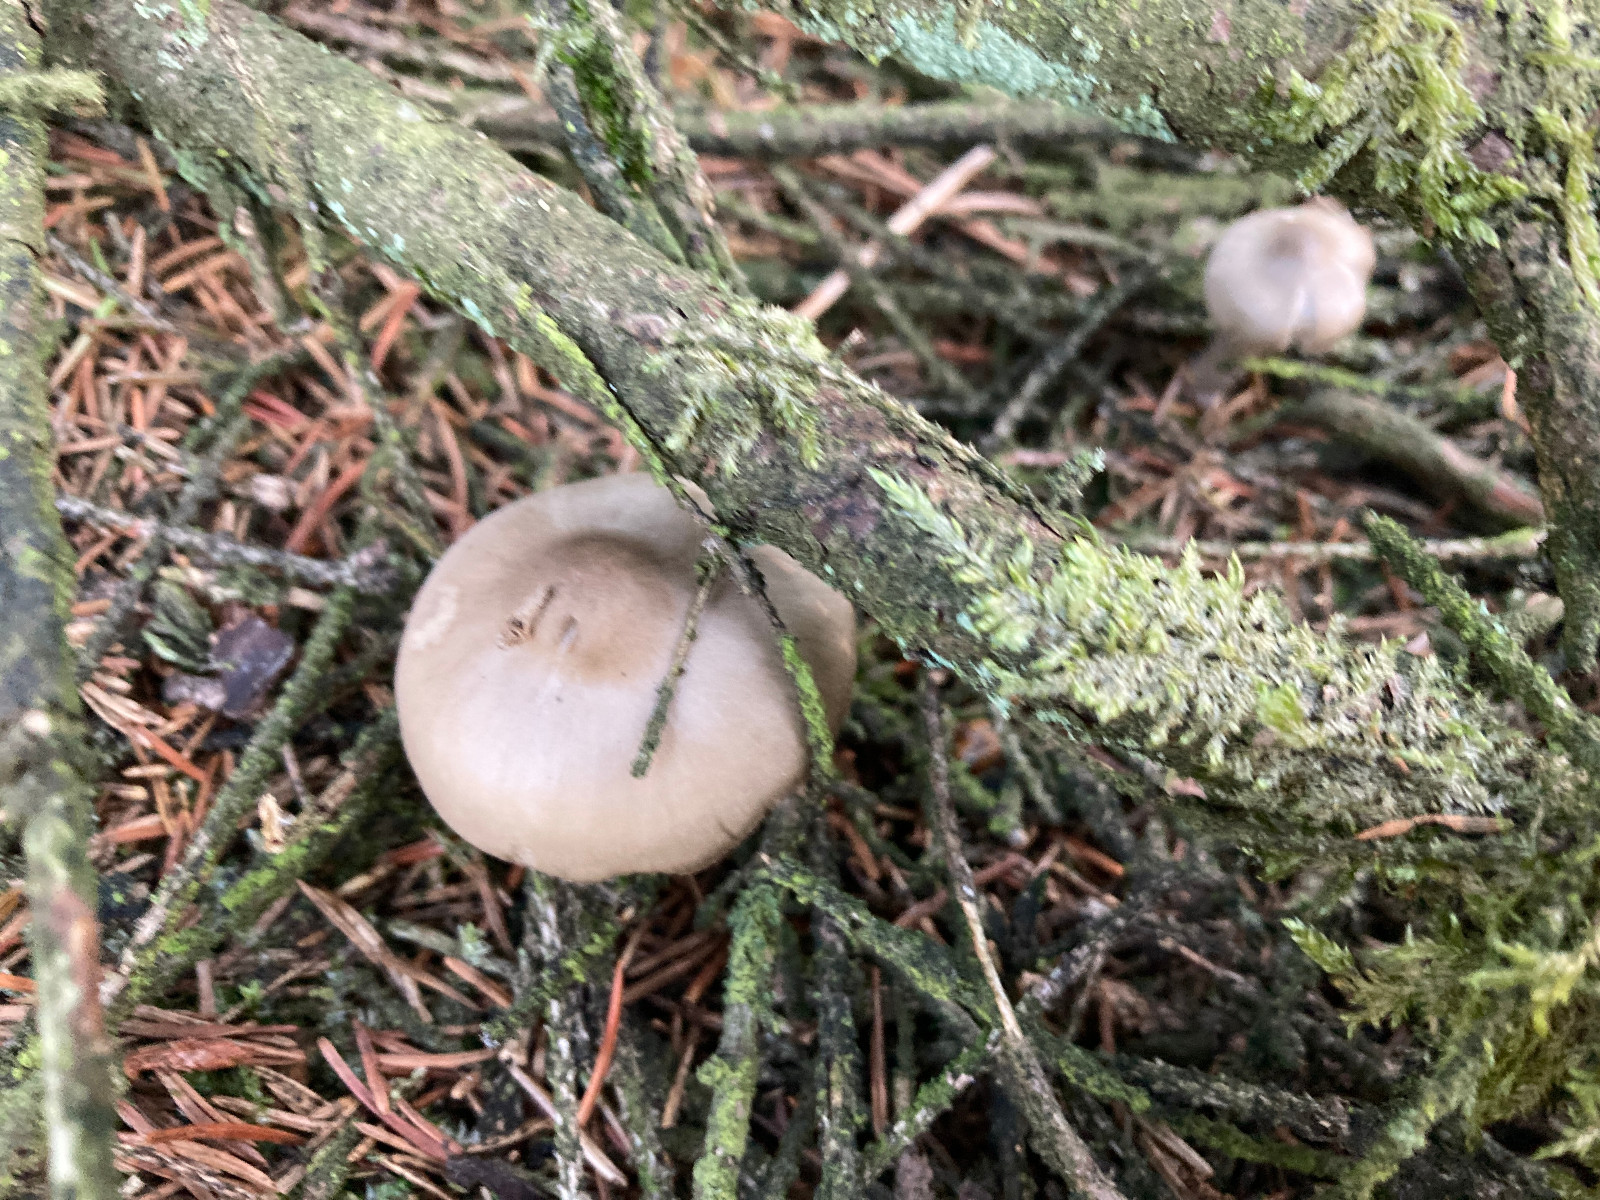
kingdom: Fungi
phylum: Basidiomycota
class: Agaricomycetes
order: Agaricales
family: Entolomataceae
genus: Entocybe
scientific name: Entocybe turbida
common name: plantage-rødblad
